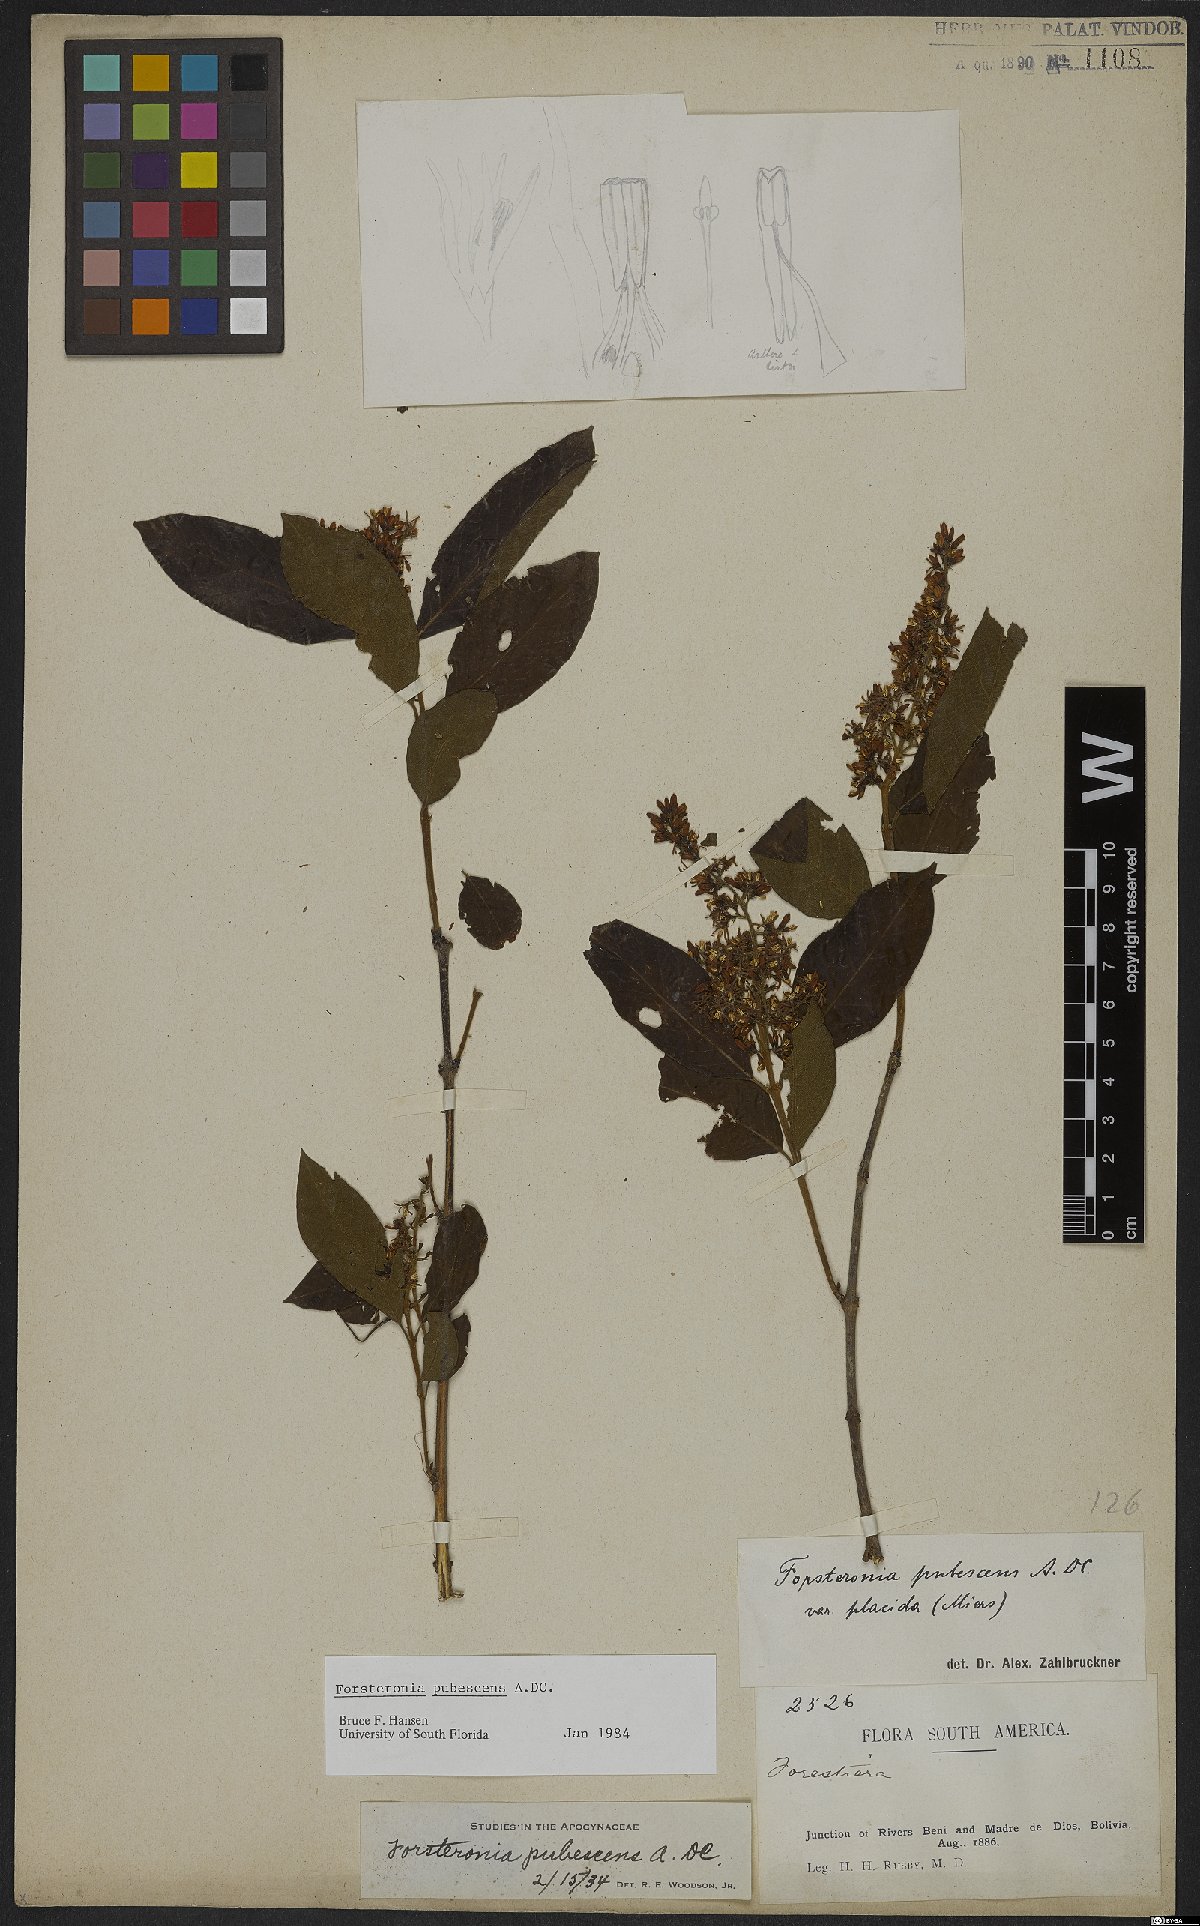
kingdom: Plantae
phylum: Tracheophyta
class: Magnoliopsida
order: Gentianales
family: Apocynaceae
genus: Forsteronia
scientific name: Forsteronia pubescens
